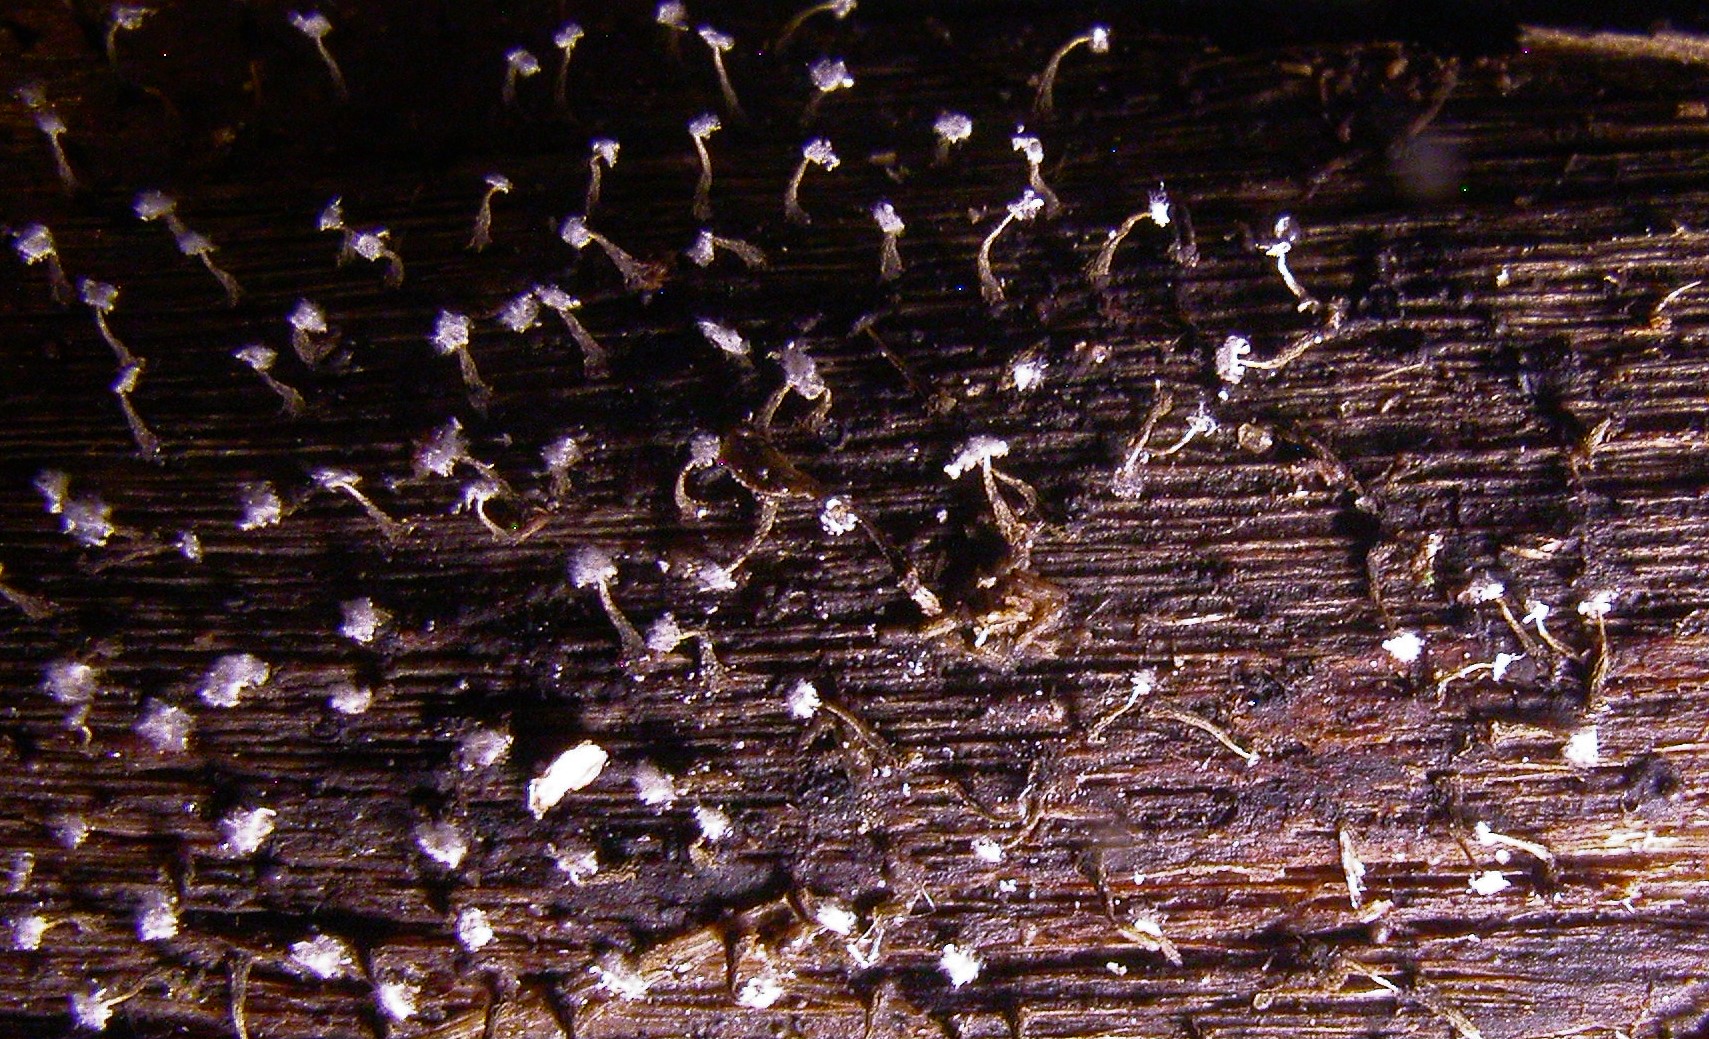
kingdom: Protozoa
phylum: Mycetozoa
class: Myxomycetes
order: Physarales
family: Physaraceae
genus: Physarum
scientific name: Physarum album
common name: nikkende støvknop
